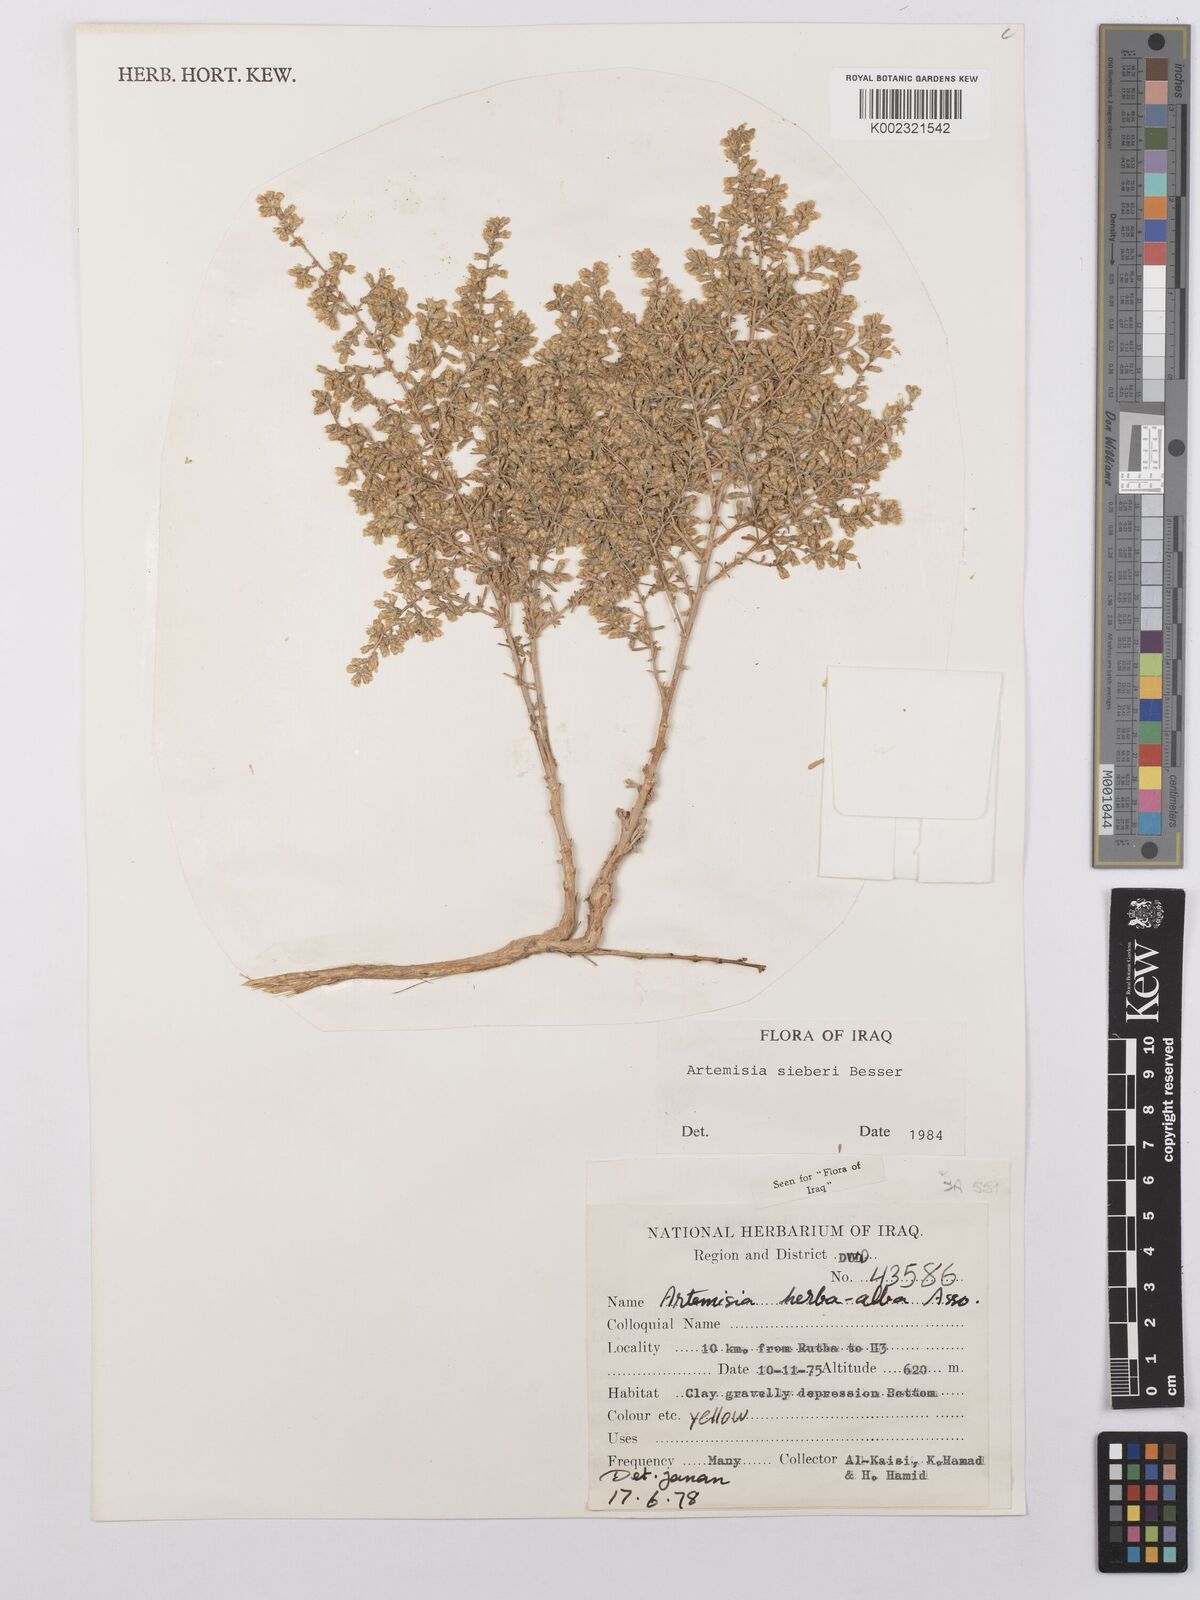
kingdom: Plantae
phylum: Tracheophyta
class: Magnoliopsida
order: Asterales
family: Asteraceae
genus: Artemisia
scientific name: Artemisia sieberi
